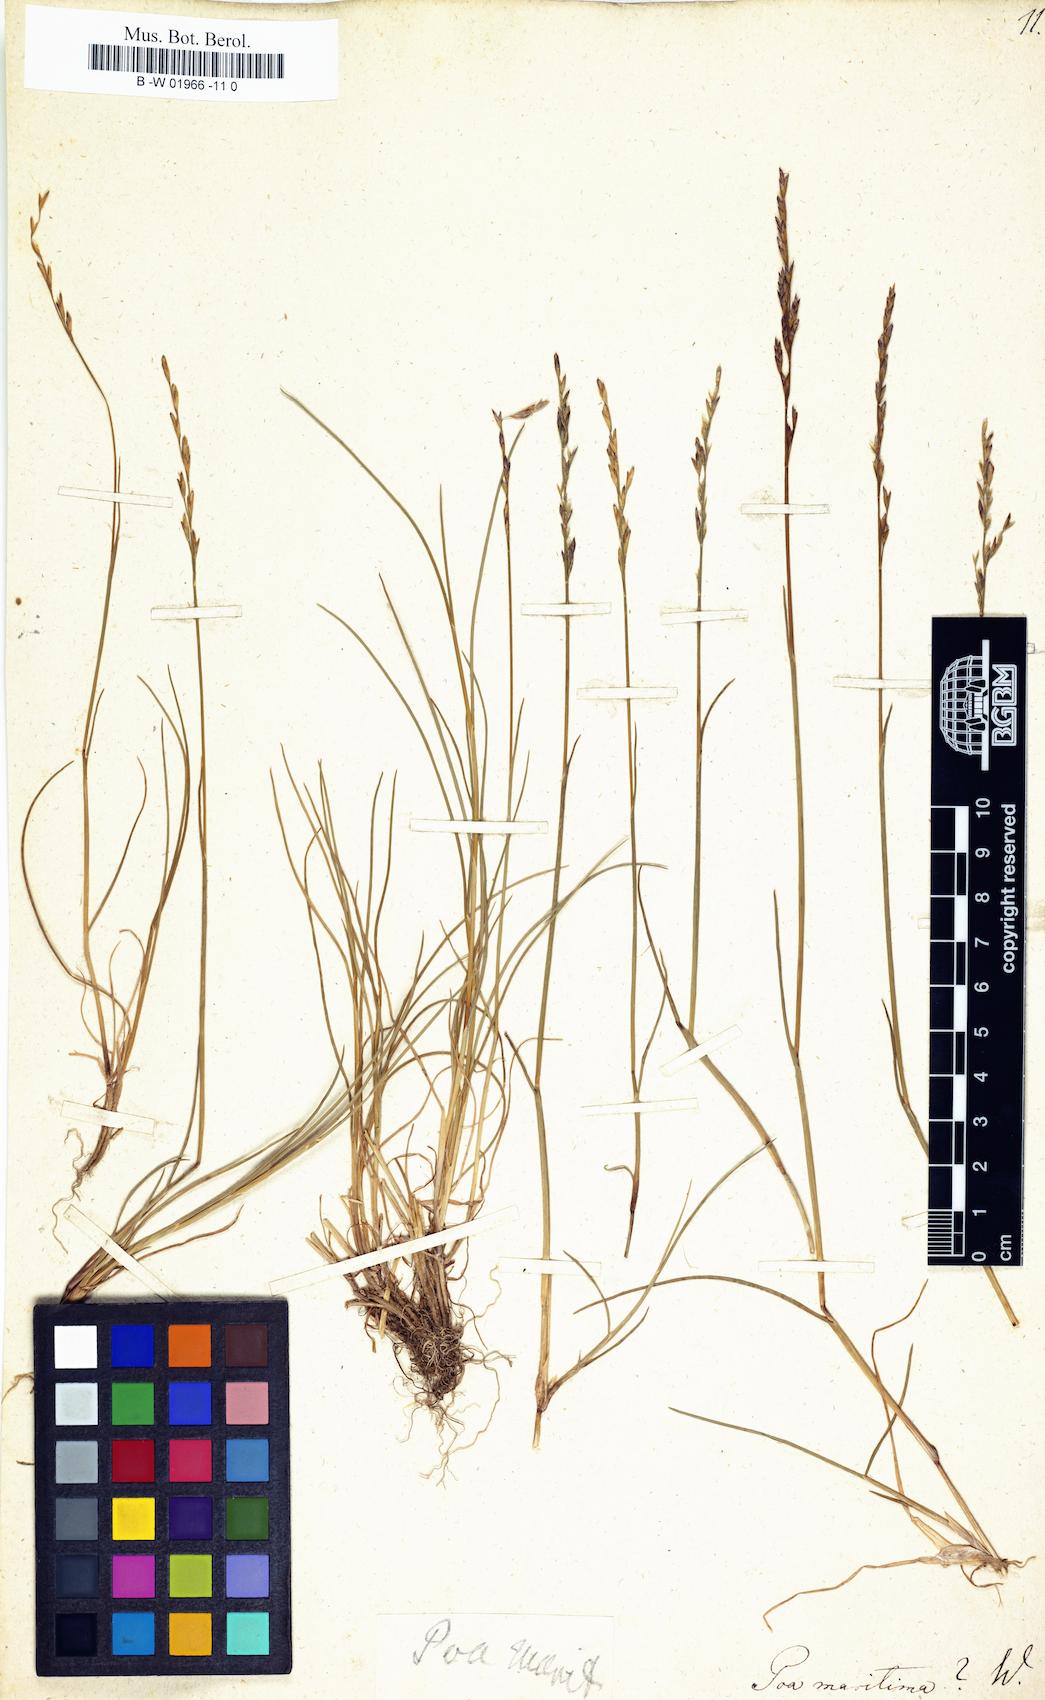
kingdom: Plantae
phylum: Tracheophyta
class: Liliopsida
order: Poales
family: Poaceae
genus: Poa
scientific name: Poa maritima
